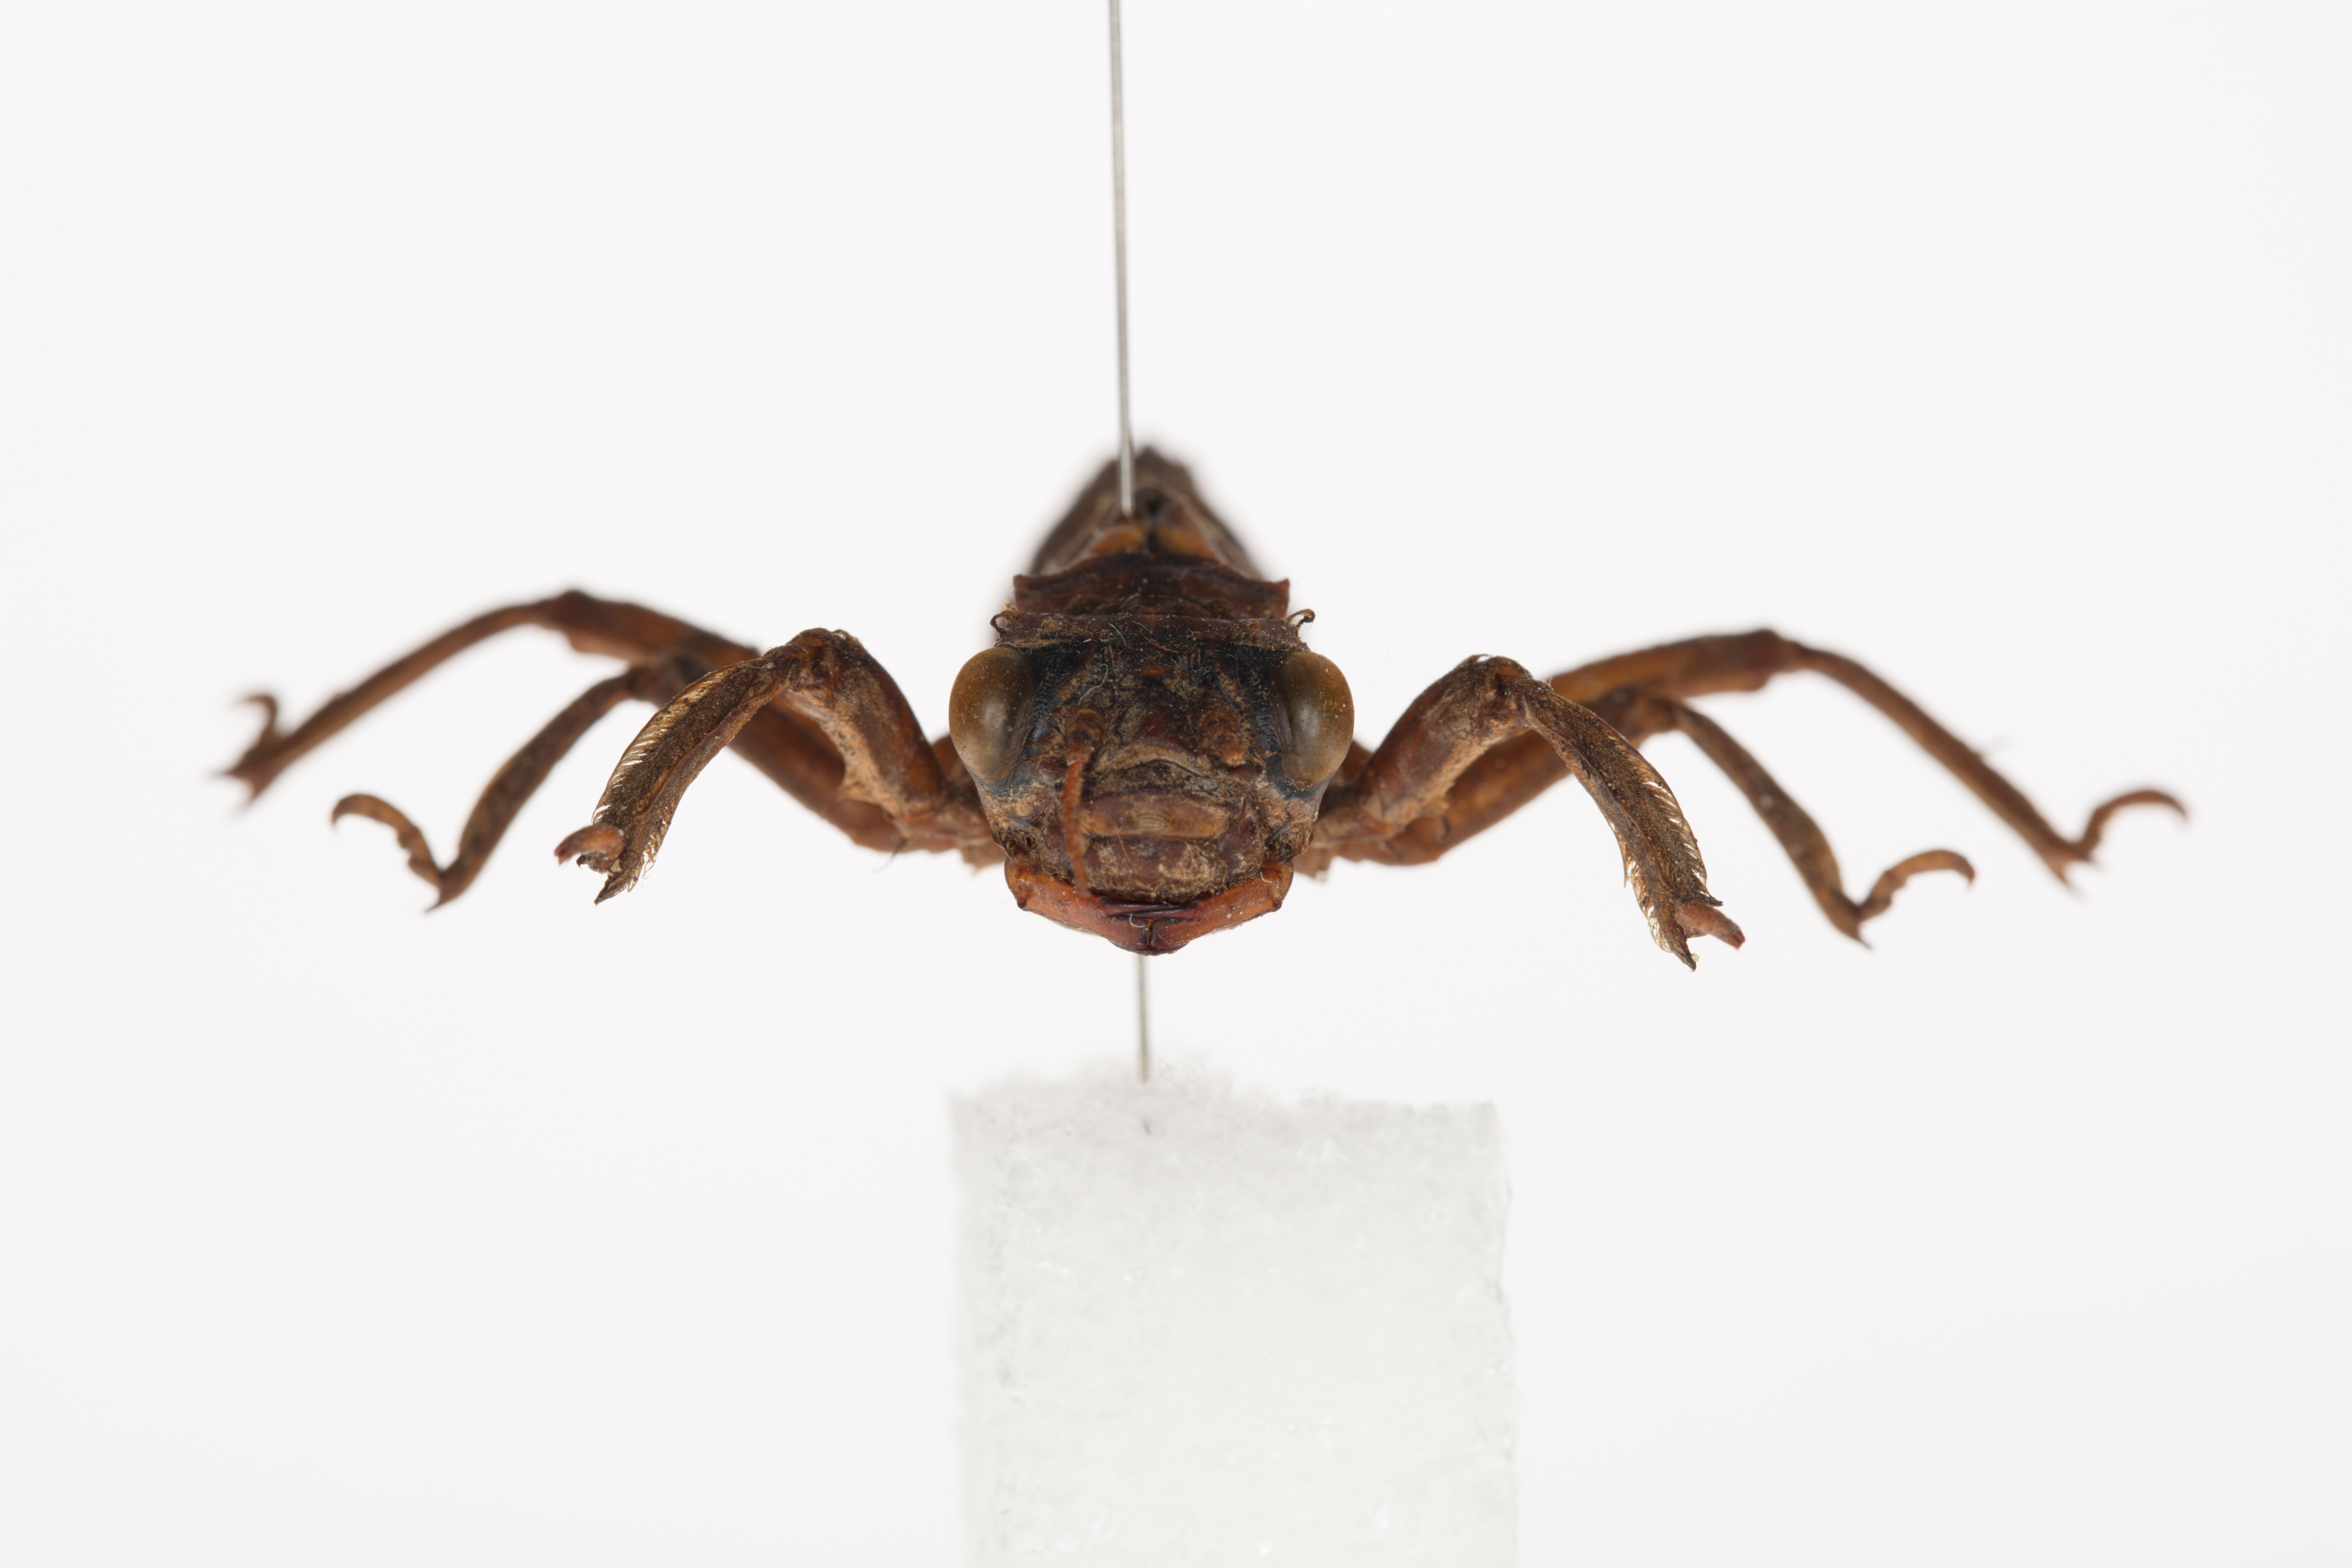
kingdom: Animalia
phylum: Arthropoda
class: Insecta
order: Odonata
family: Petaluridae
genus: Uropetala
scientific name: Uropetala chiltoni
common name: Mountain giant dragonfly
